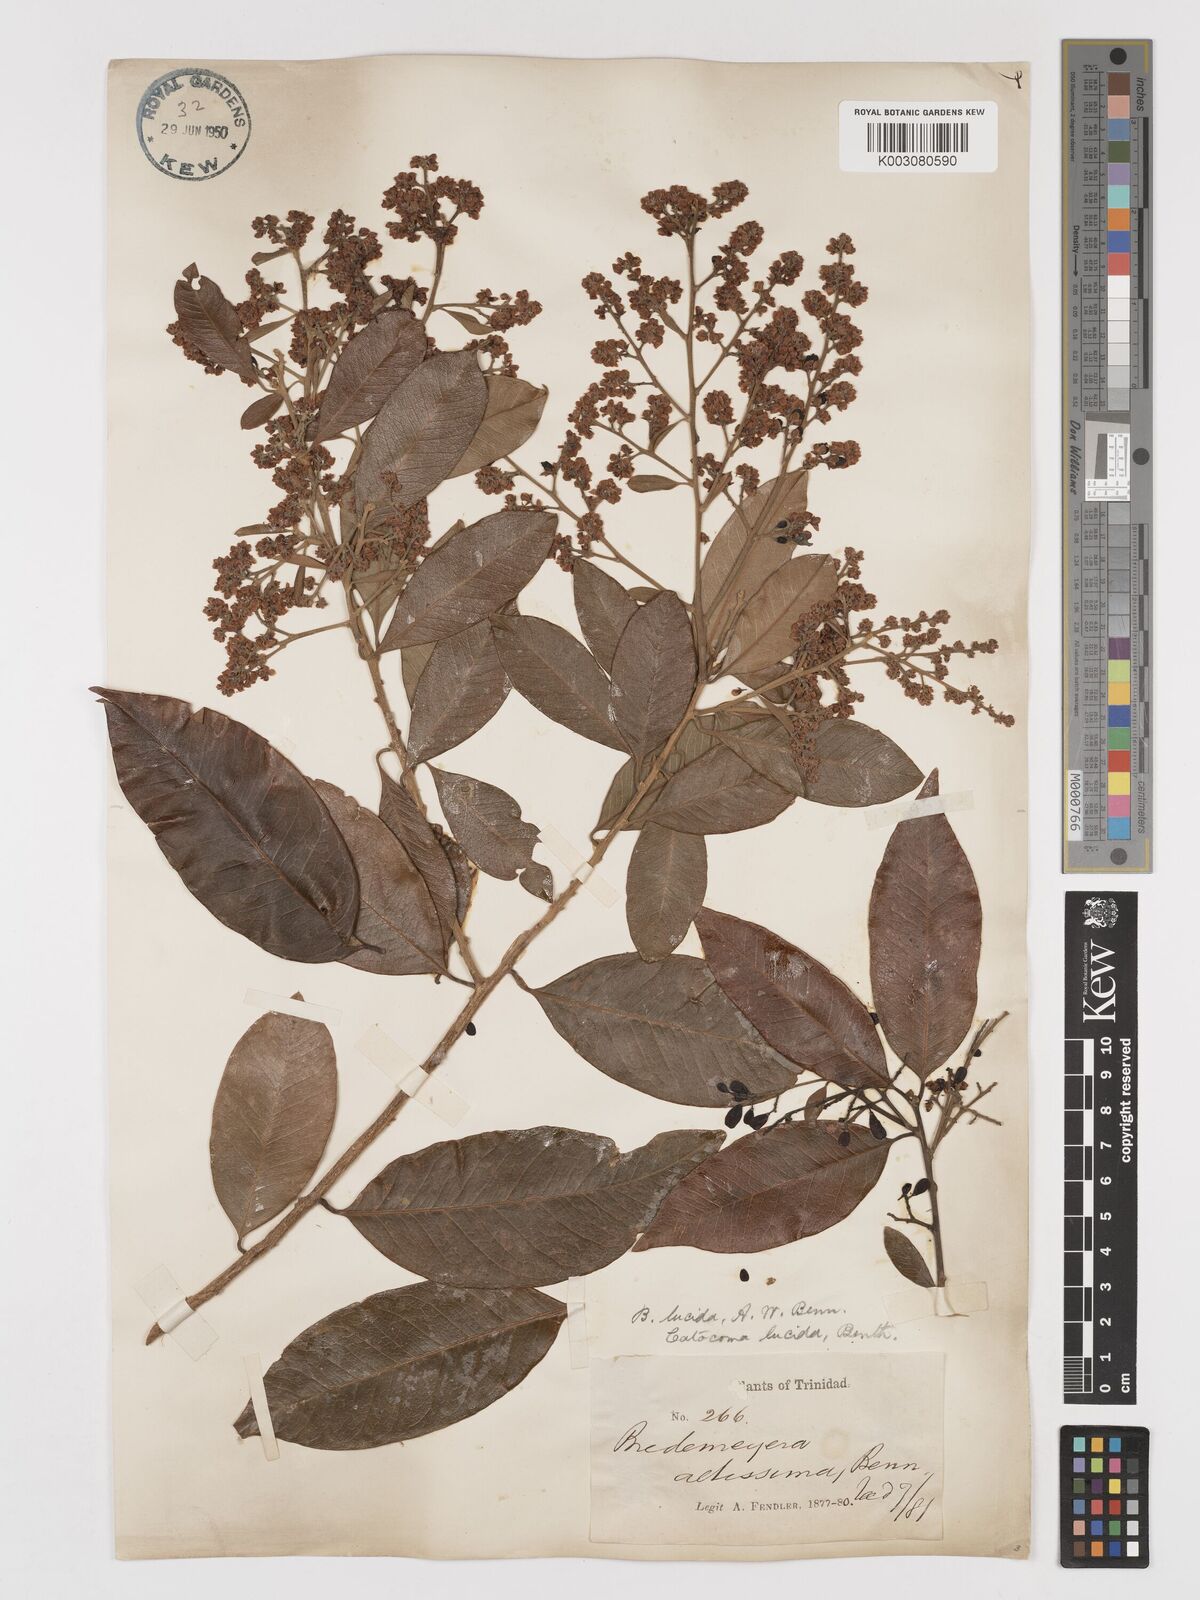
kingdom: Plantae
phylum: Tracheophyta
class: Magnoliopsida
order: Fabales
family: Polygalaceae
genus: Bredemeyera
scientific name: Bredemeyera lucida
